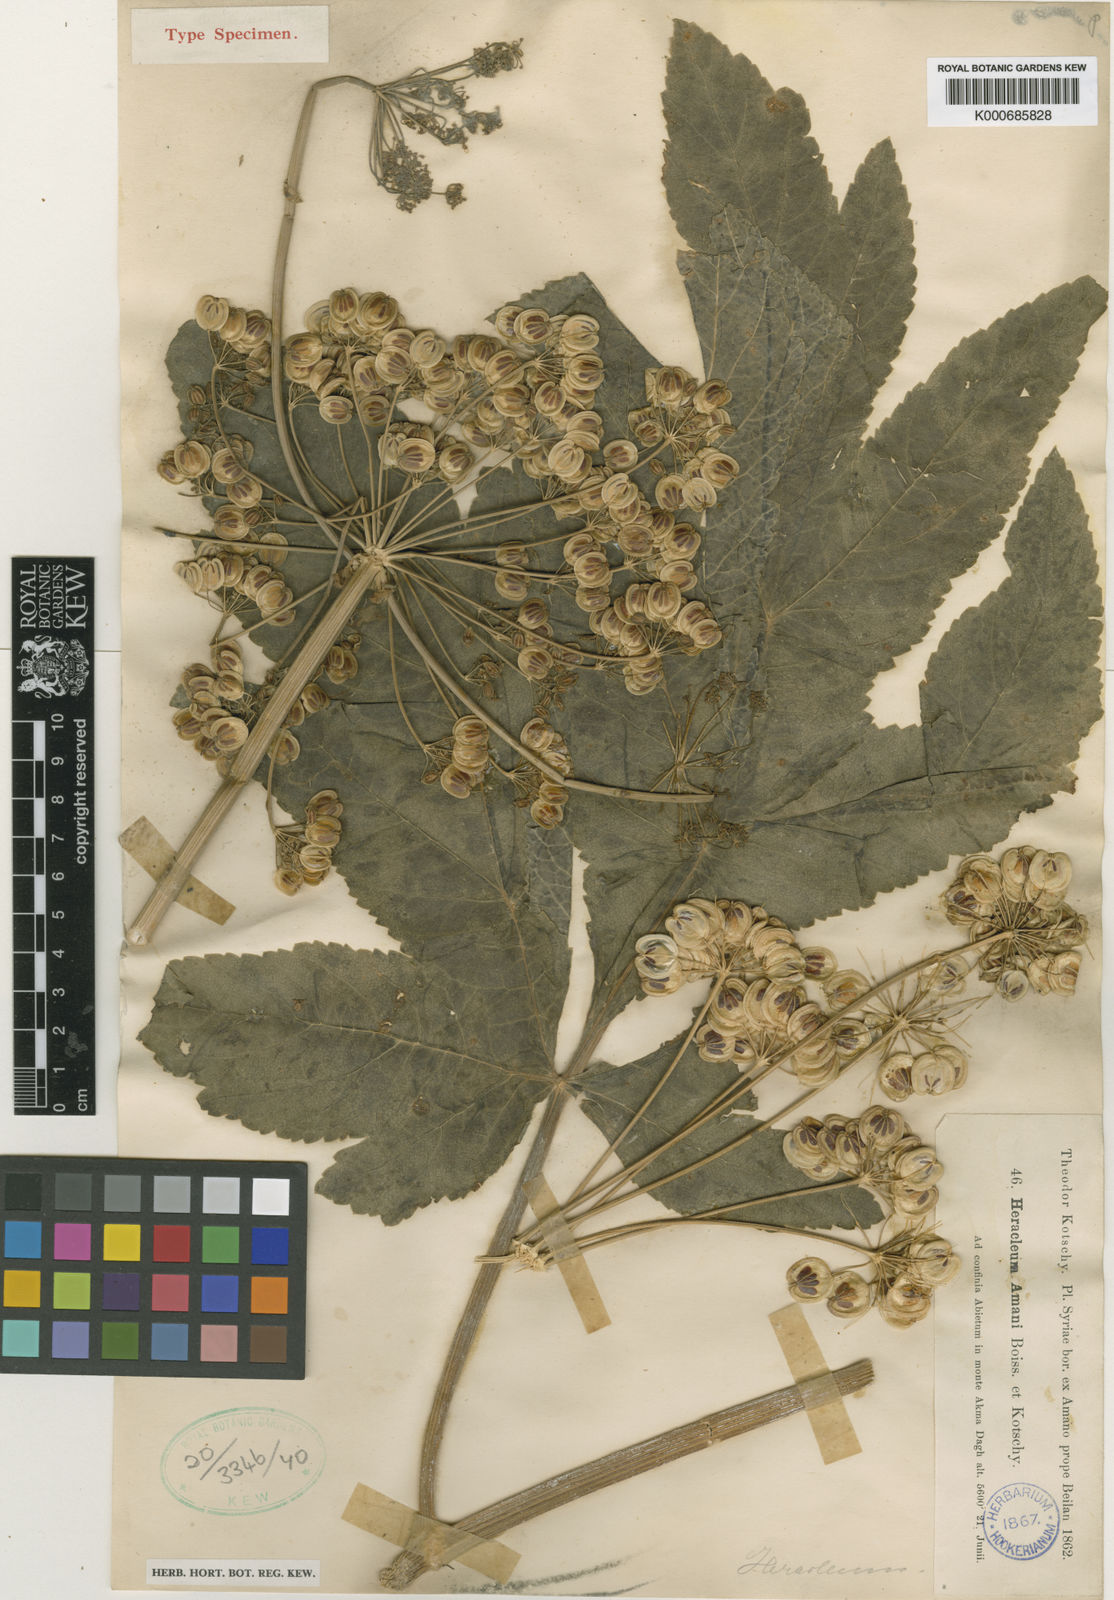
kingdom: Plantae
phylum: Tracheophyta
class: Magnoliopsida
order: Apiales
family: Apiaceae
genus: Heracleum
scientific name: Heracleum
